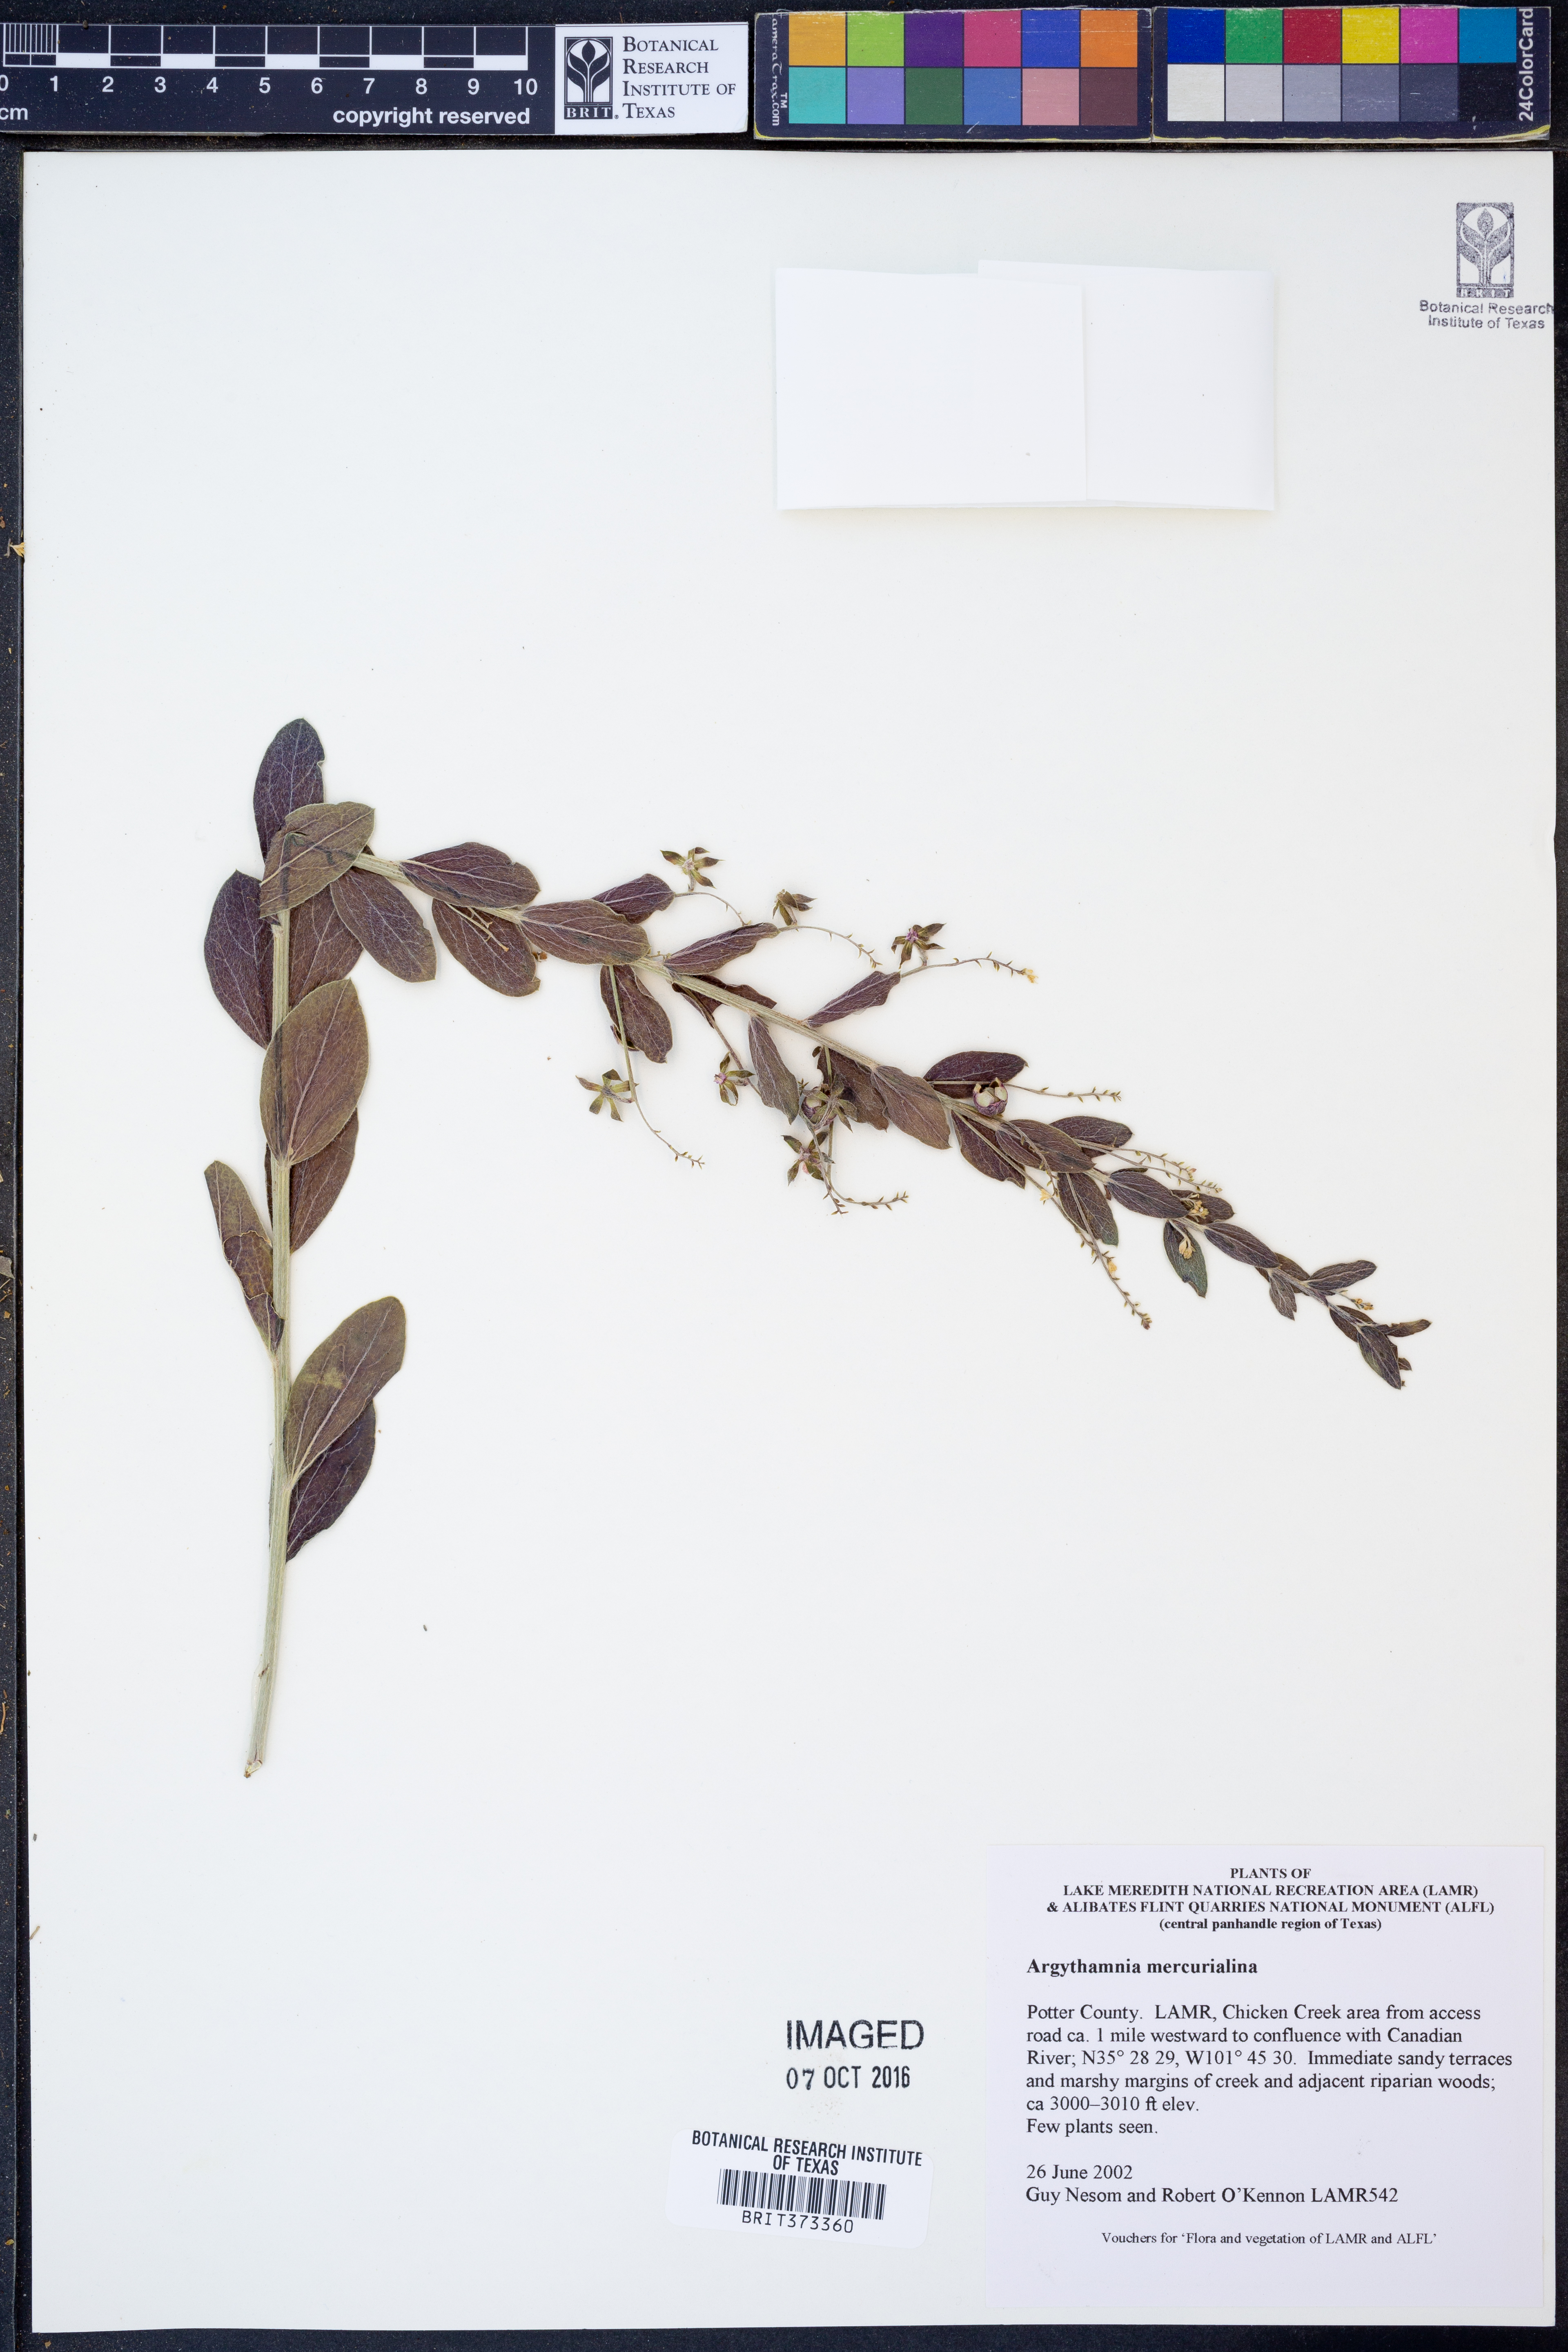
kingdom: Plantae
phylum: Tracheophyta
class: Magnoliopsida
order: Malpighiales
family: Euphorbiaceae
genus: Ditaxis
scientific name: Ditaxis mercurialina
